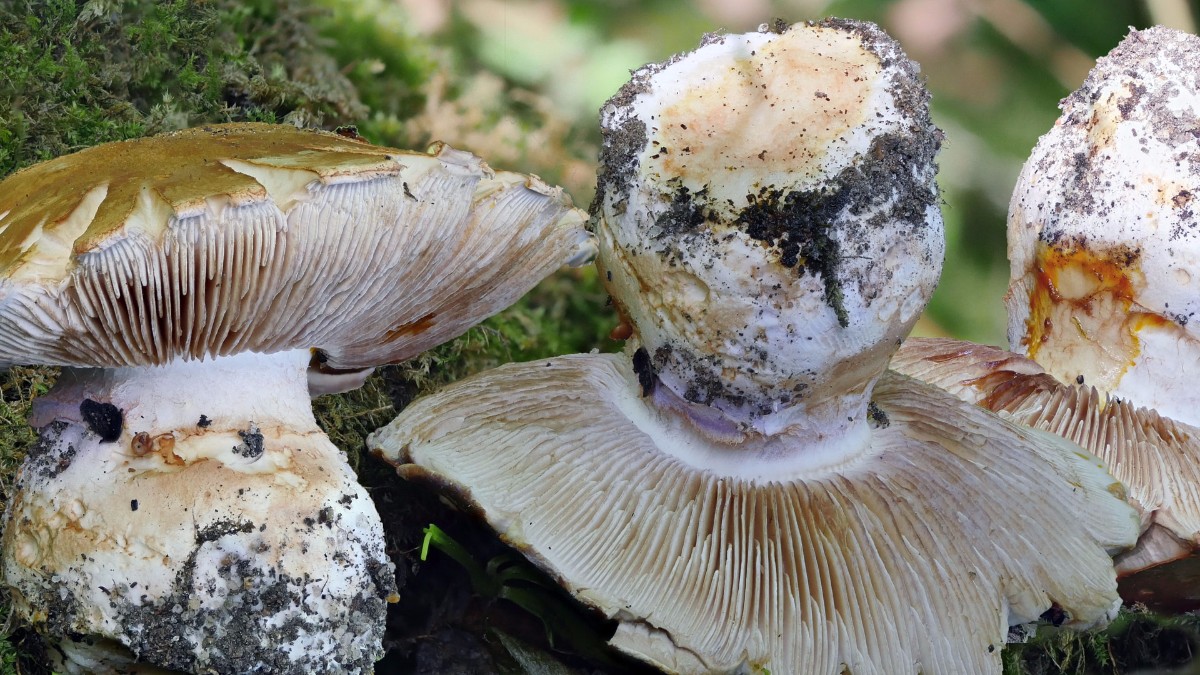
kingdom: Fungi
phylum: Basidiomycota
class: Agaricomycetes
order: Agaricales
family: Cortinariaceae
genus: Cortinarius
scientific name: Cortinarius largus
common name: violetrandet slørhat
